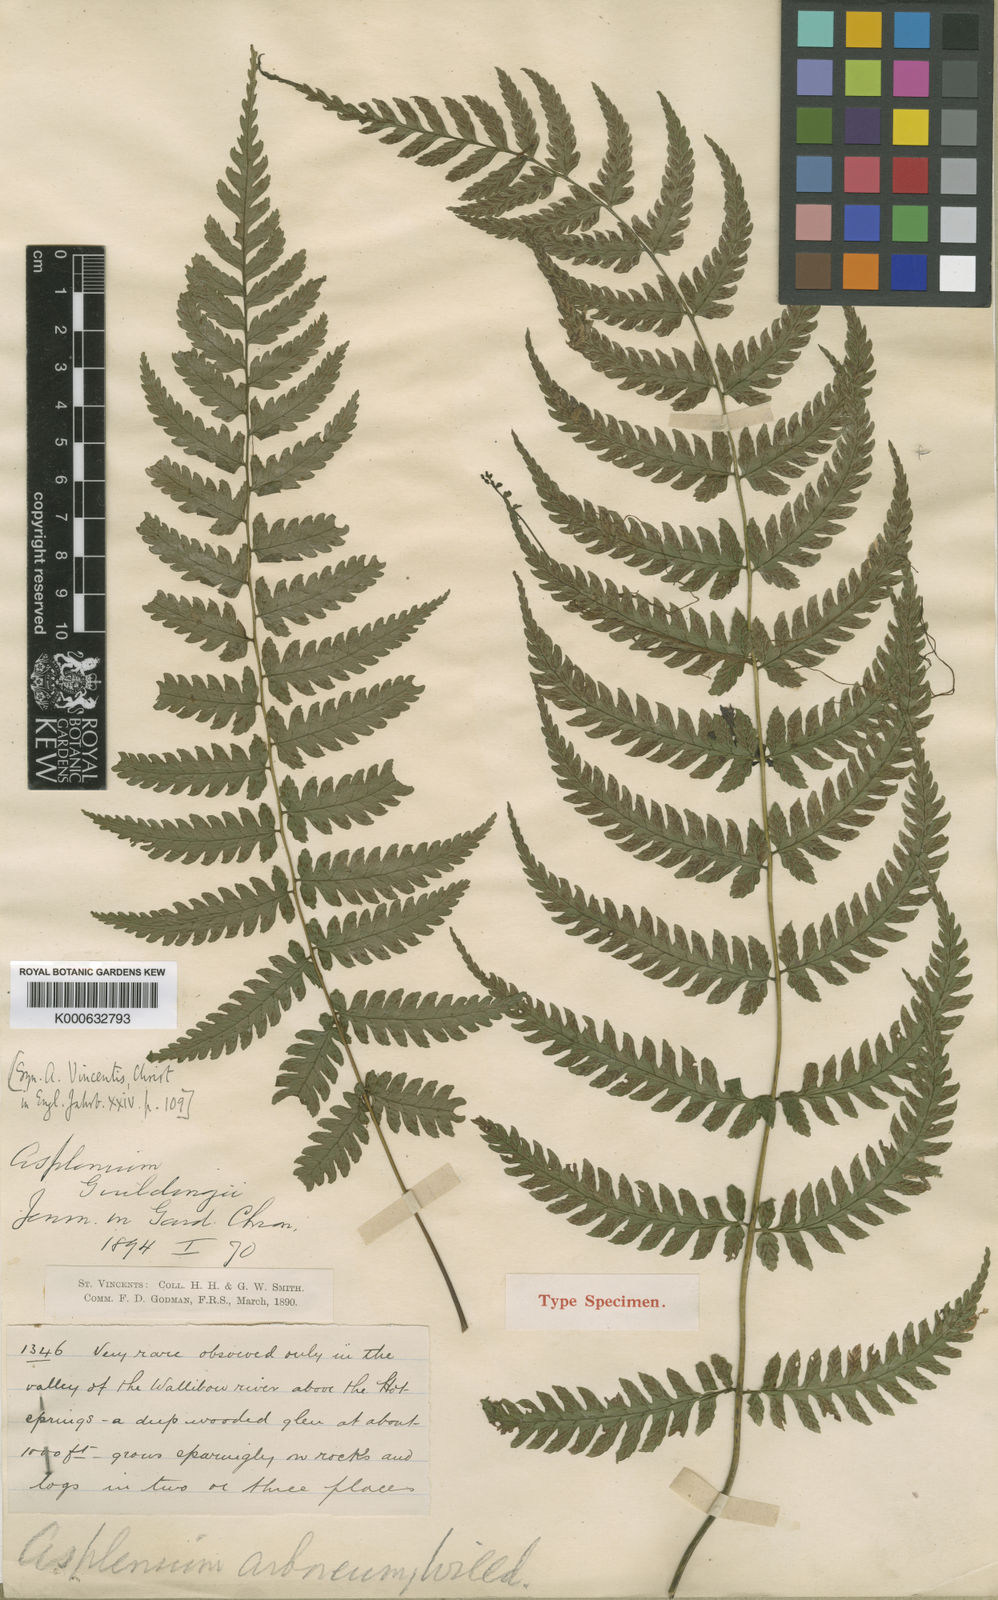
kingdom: Plantae
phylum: Tracheophyta
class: Polypodiopsida
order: Polypodiales
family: Athyriaceae
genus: Diplazium
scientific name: Diplazium caracasanum
